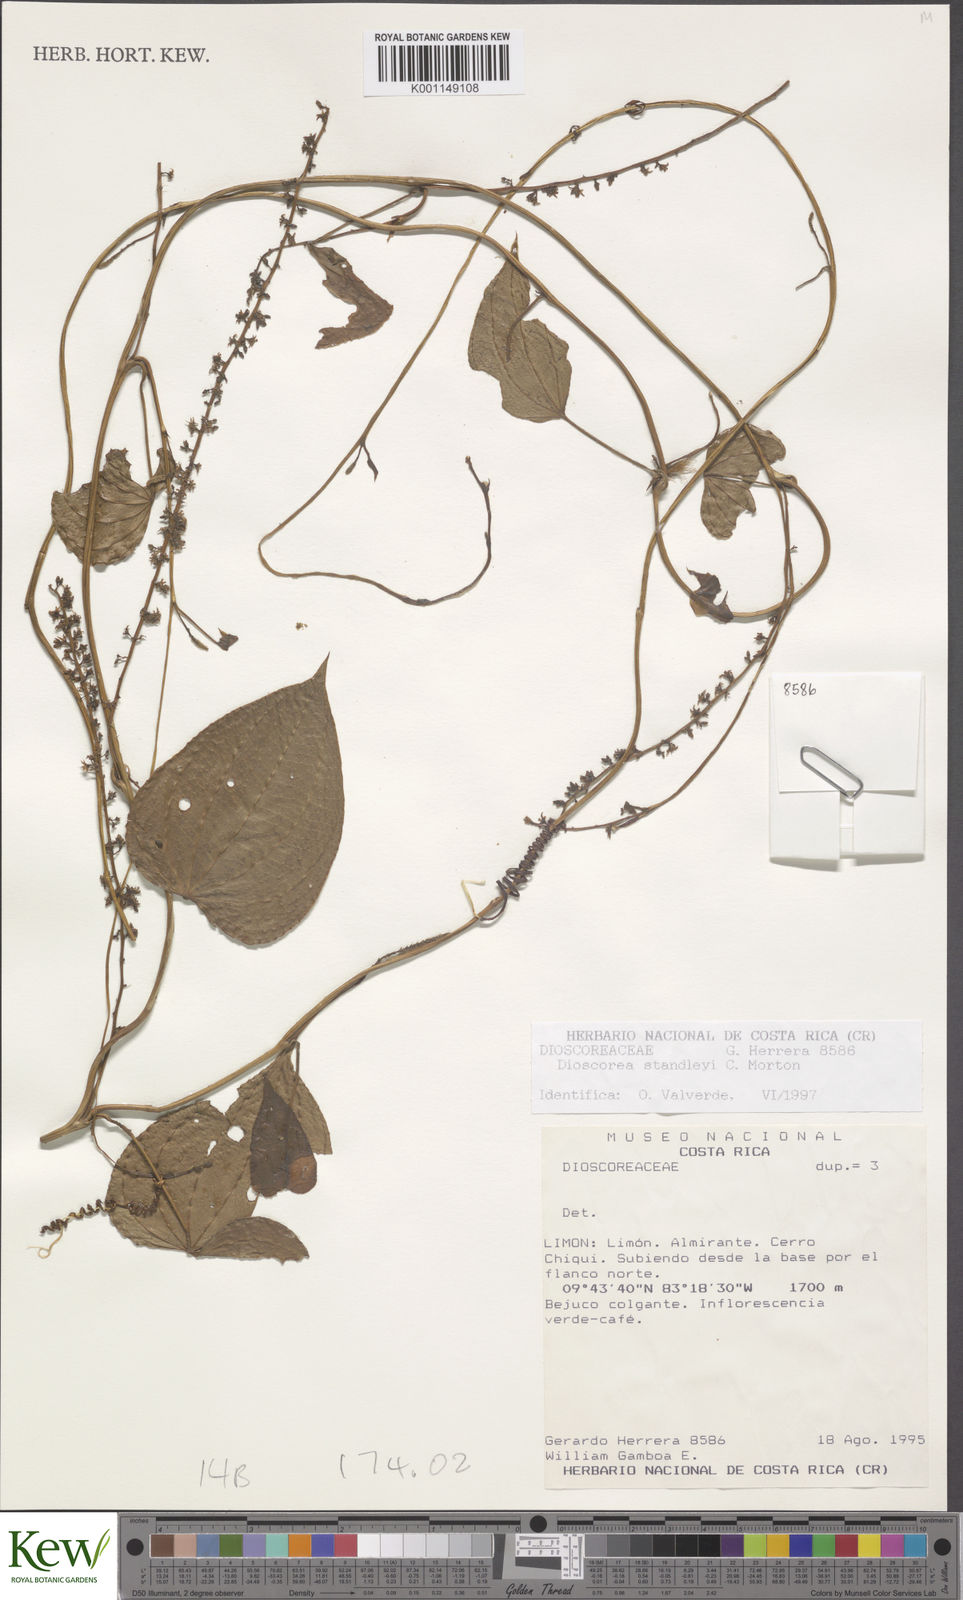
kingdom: Plantae
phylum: Tracheophyta
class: Liliopsida
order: Dioscoreales
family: Dioscoreaceae
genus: Dioscorea
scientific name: Dioscorea
